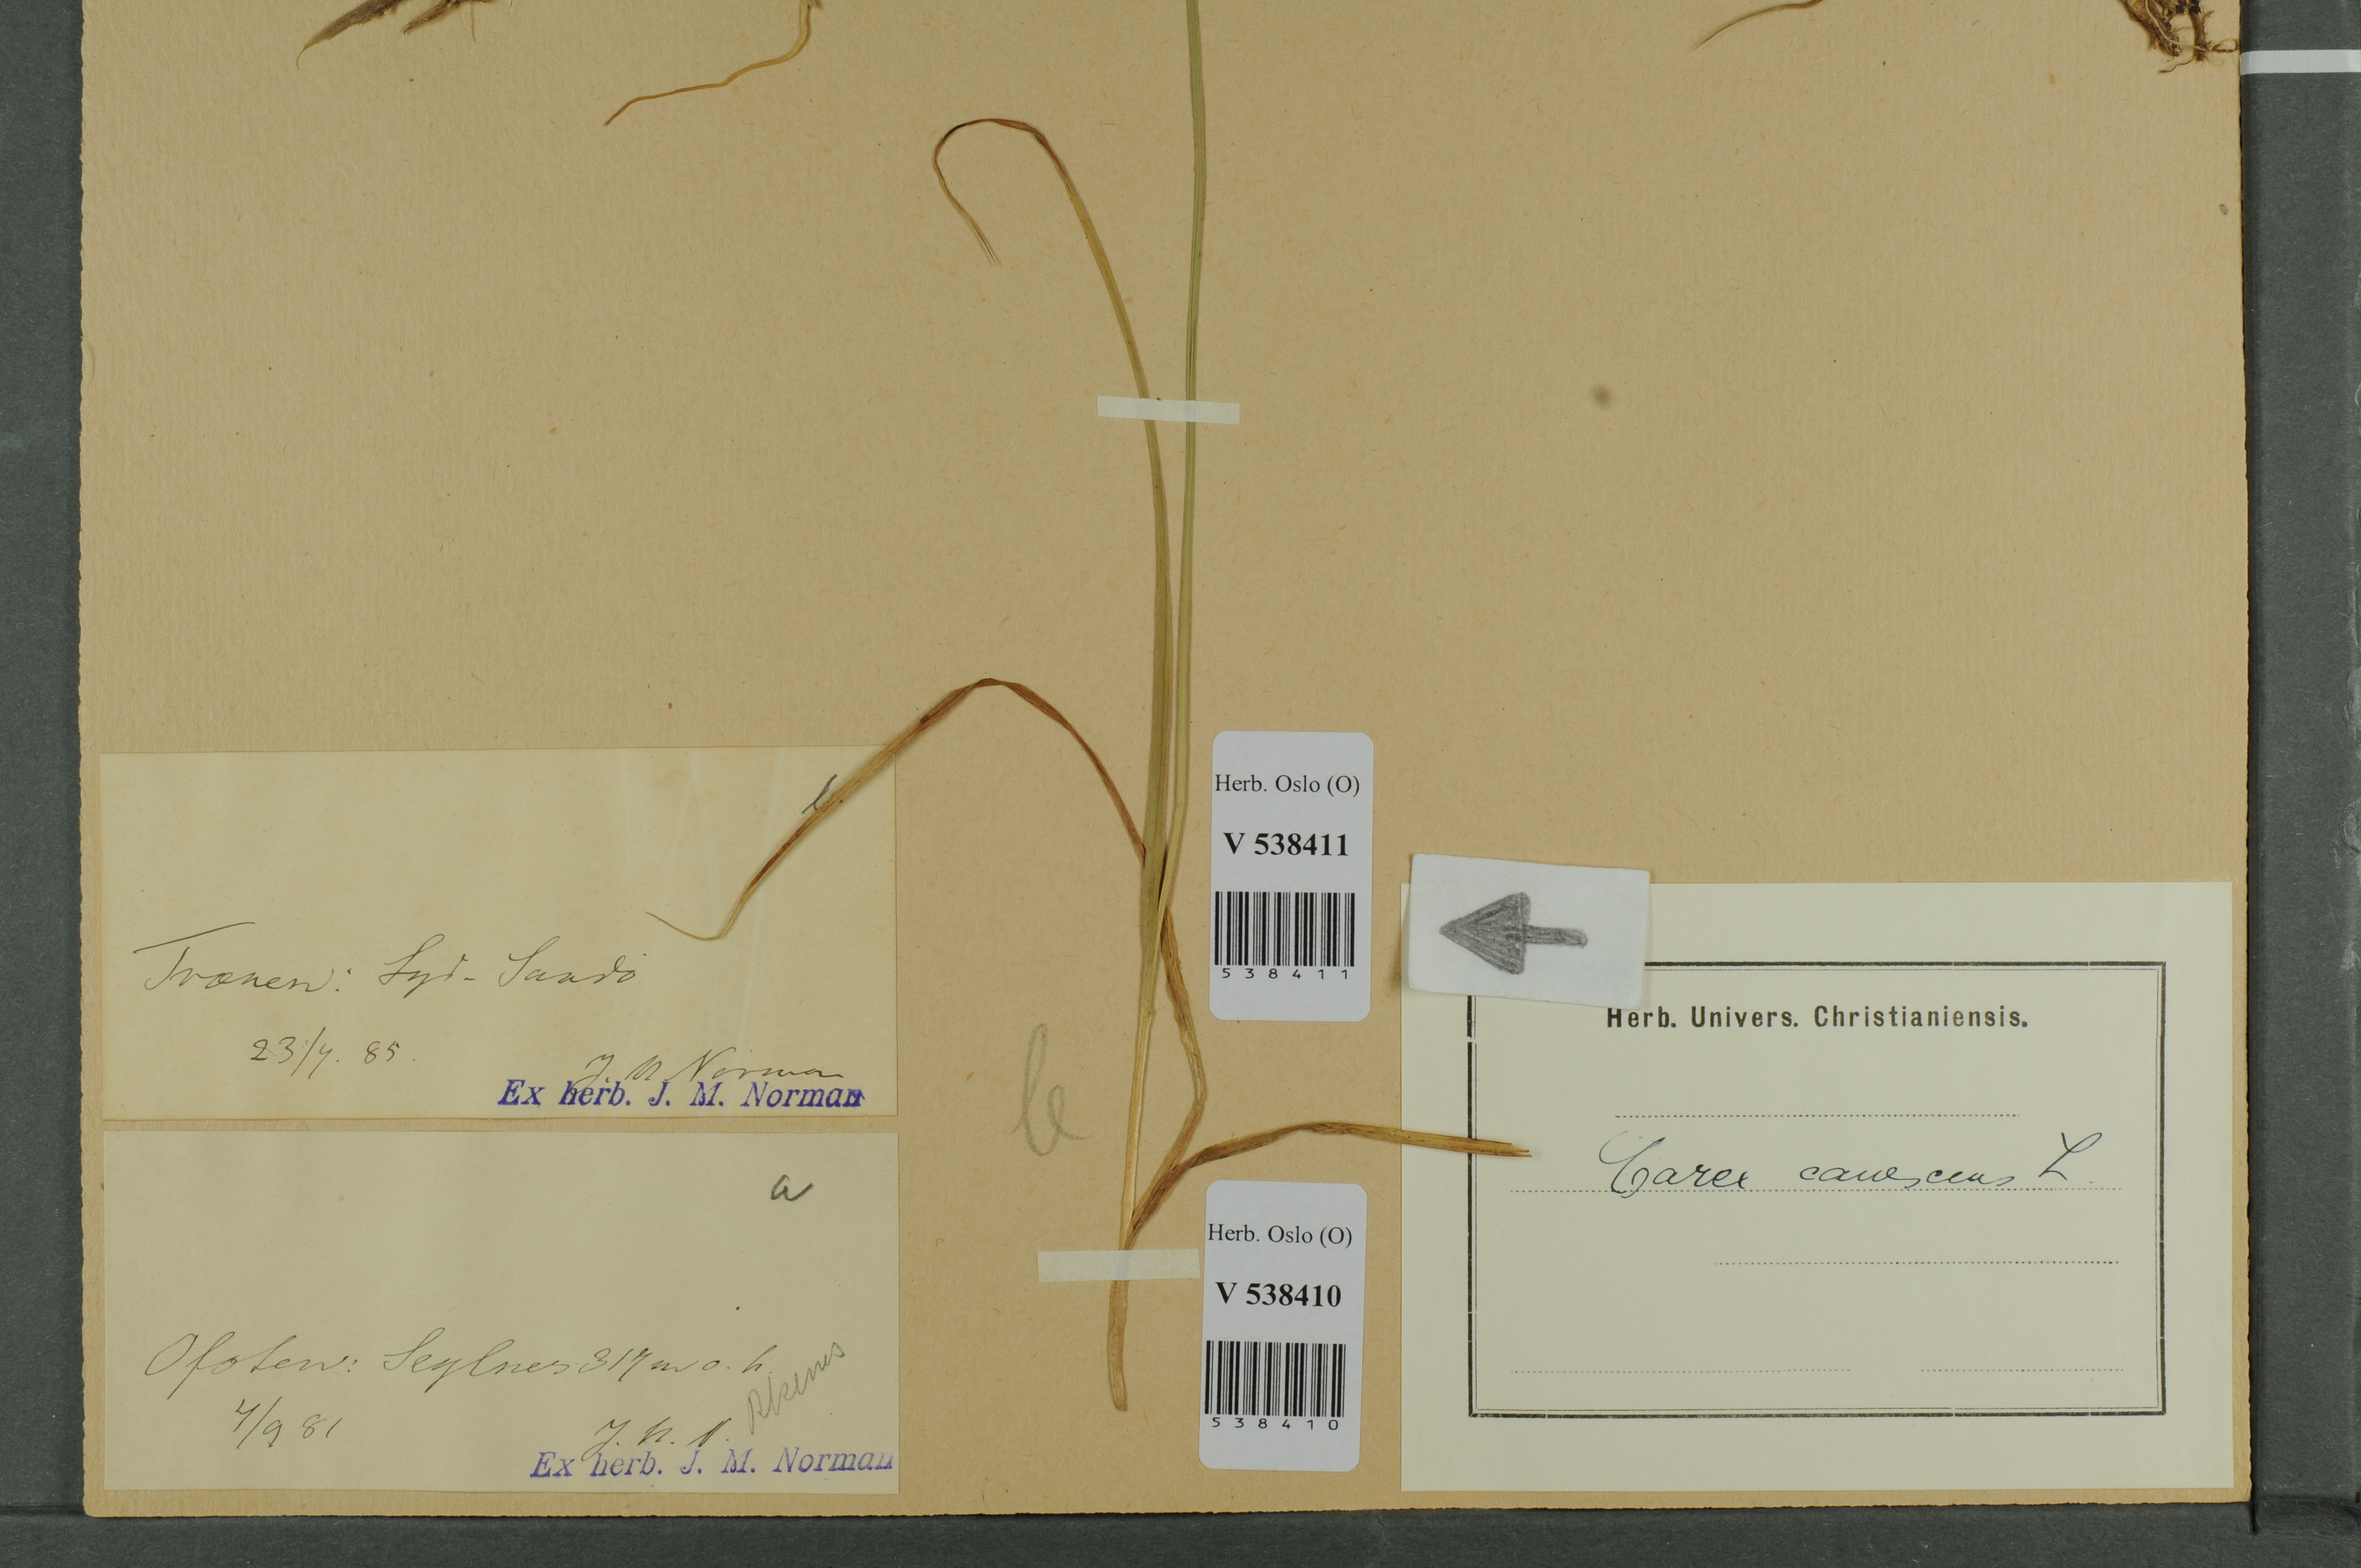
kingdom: Plantae
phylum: Tracheophyta
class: Liliopsida
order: Poales
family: Cyperaceae
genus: Carex
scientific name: Carex canescens
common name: White sedge
